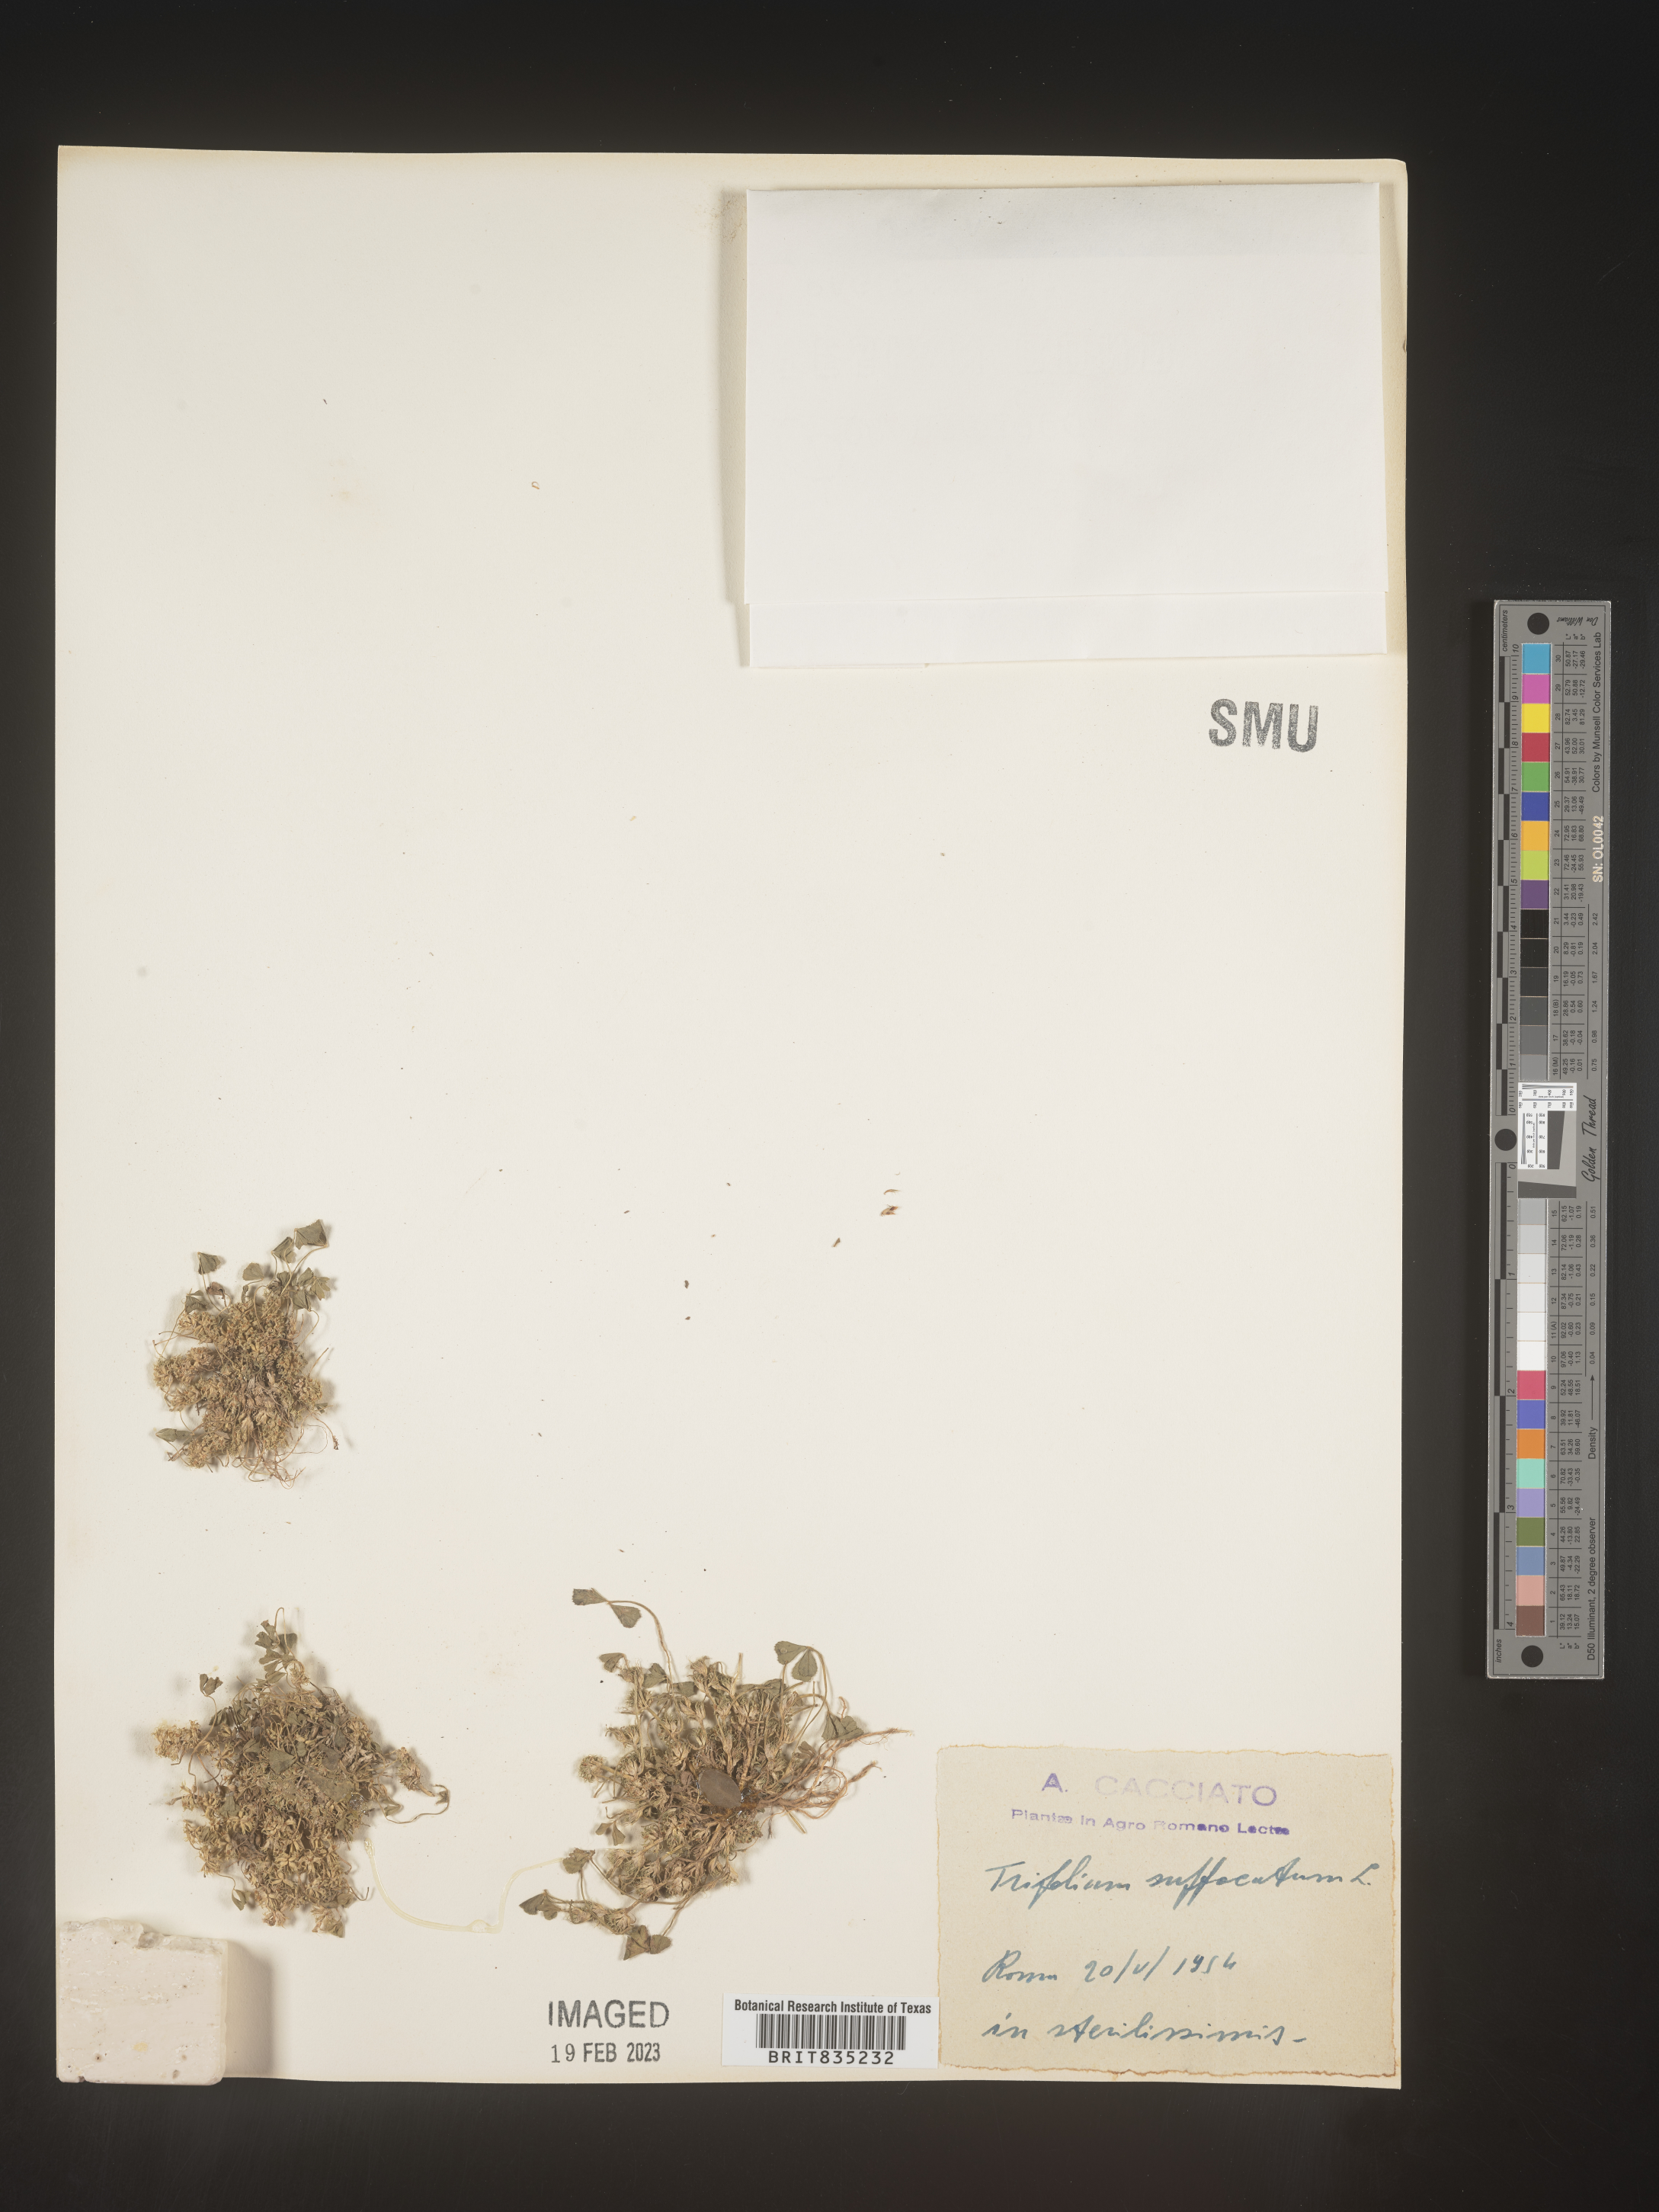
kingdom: Plantae
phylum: Tracheophyta
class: Magnoliopsida
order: Fabales
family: Fabaceae
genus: Trifolium
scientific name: Trifolium
